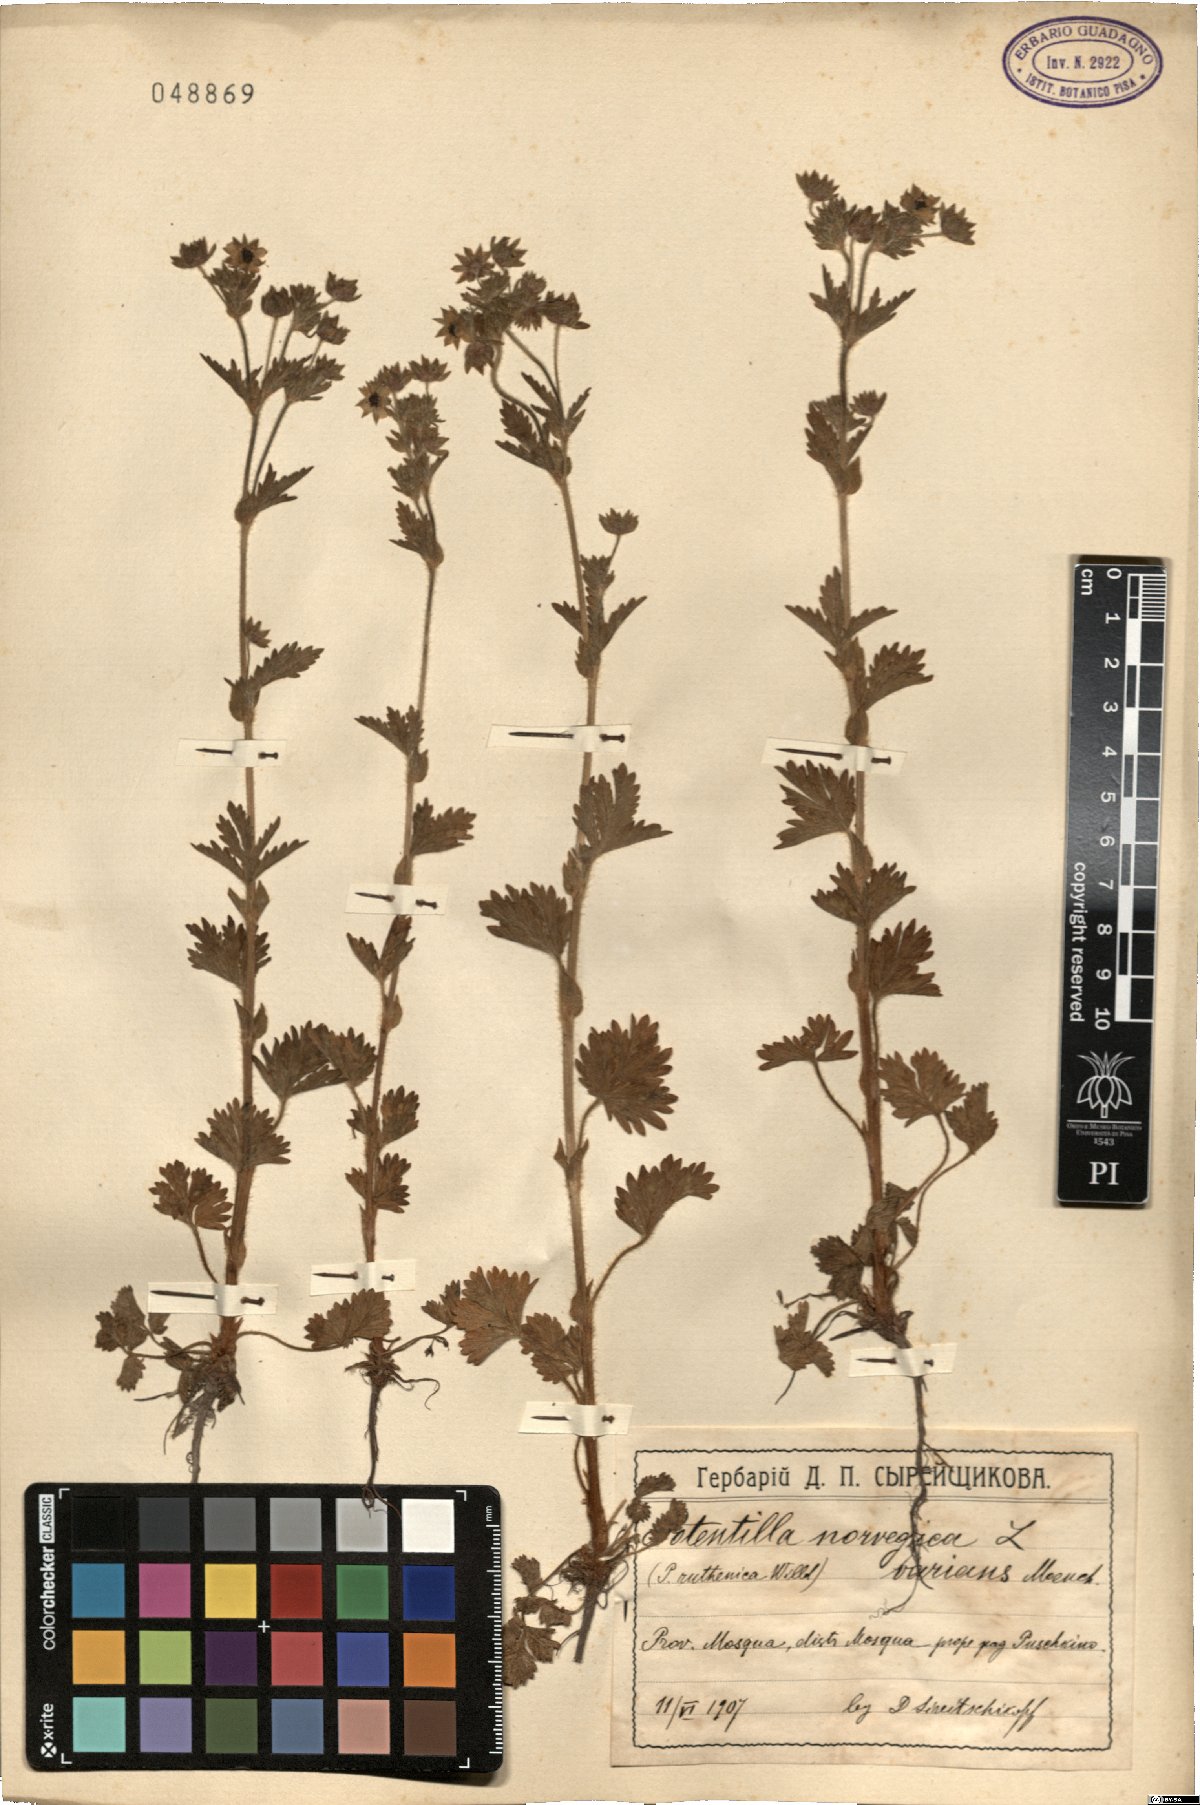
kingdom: Plantae
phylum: Tracheophyta
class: Magnoliopsida
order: Rosales
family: Rosaceae
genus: Potentilla
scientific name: Potentilla norvegica
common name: Ternate-leaved cinquefoil
